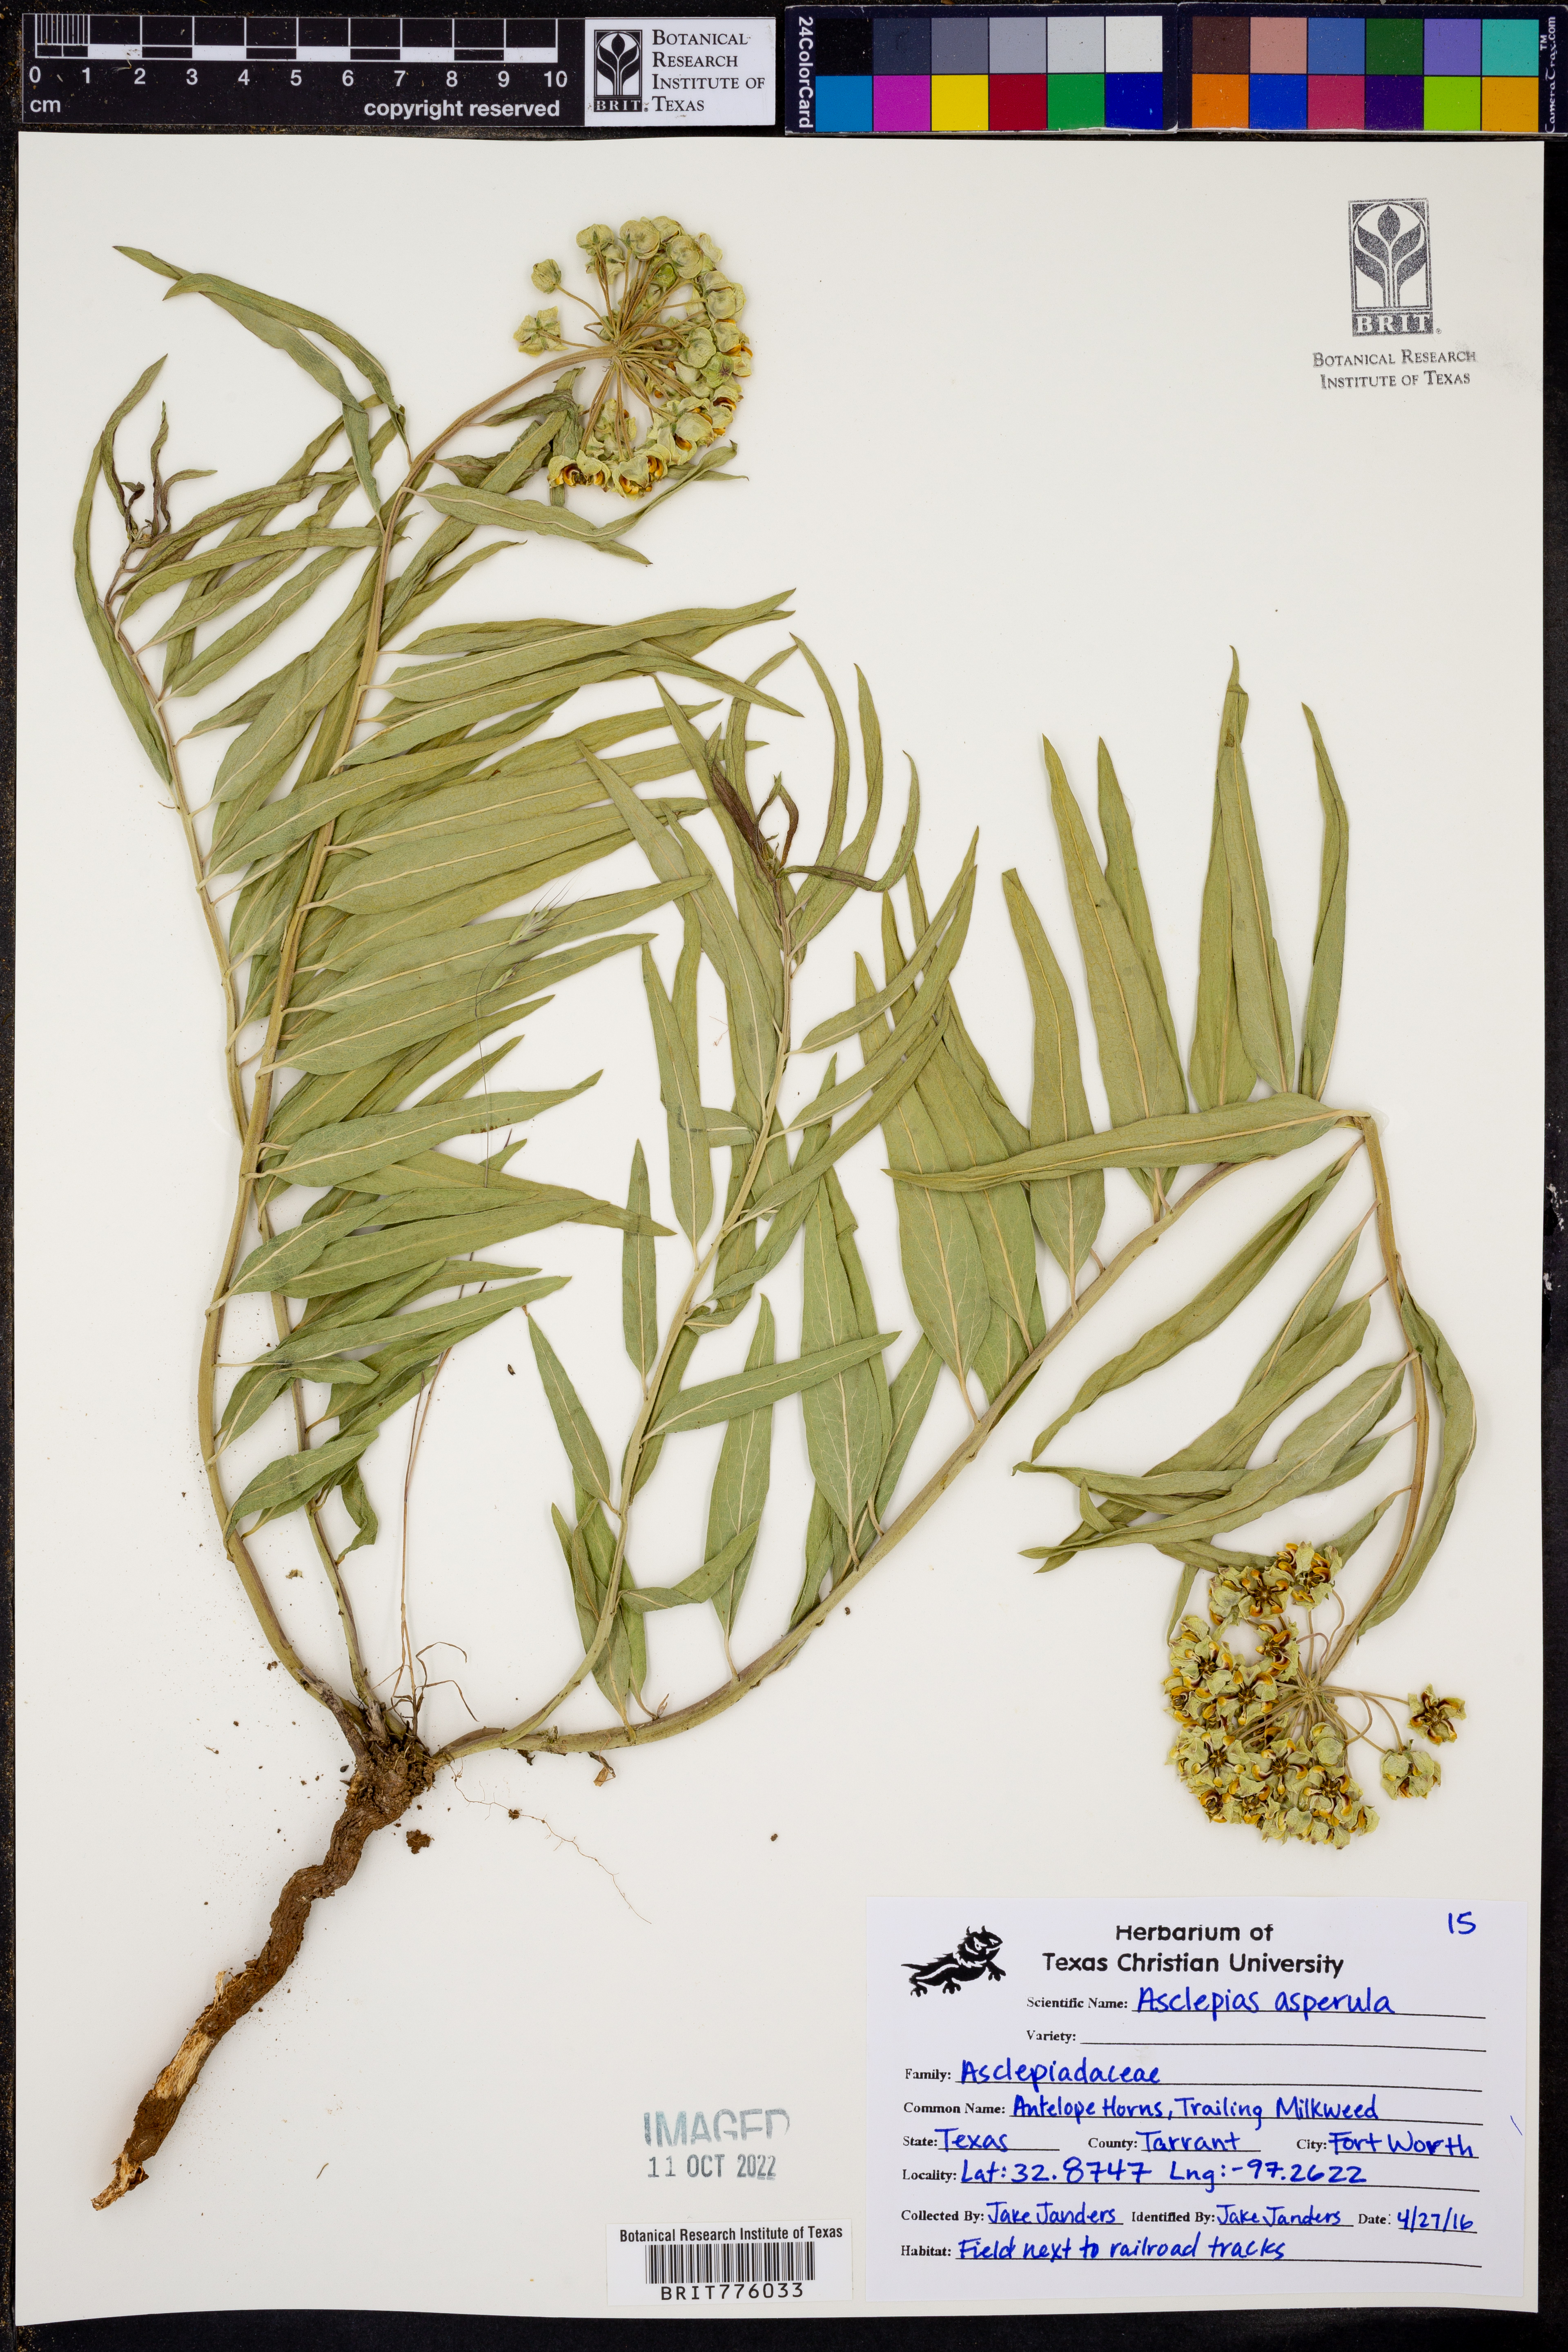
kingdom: Plantae
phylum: Tracheophyta
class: Magnoliopsida
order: Gentianales
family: Apocynaceae
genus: Asclepias
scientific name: Asclepias asperula
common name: Antelope horns
